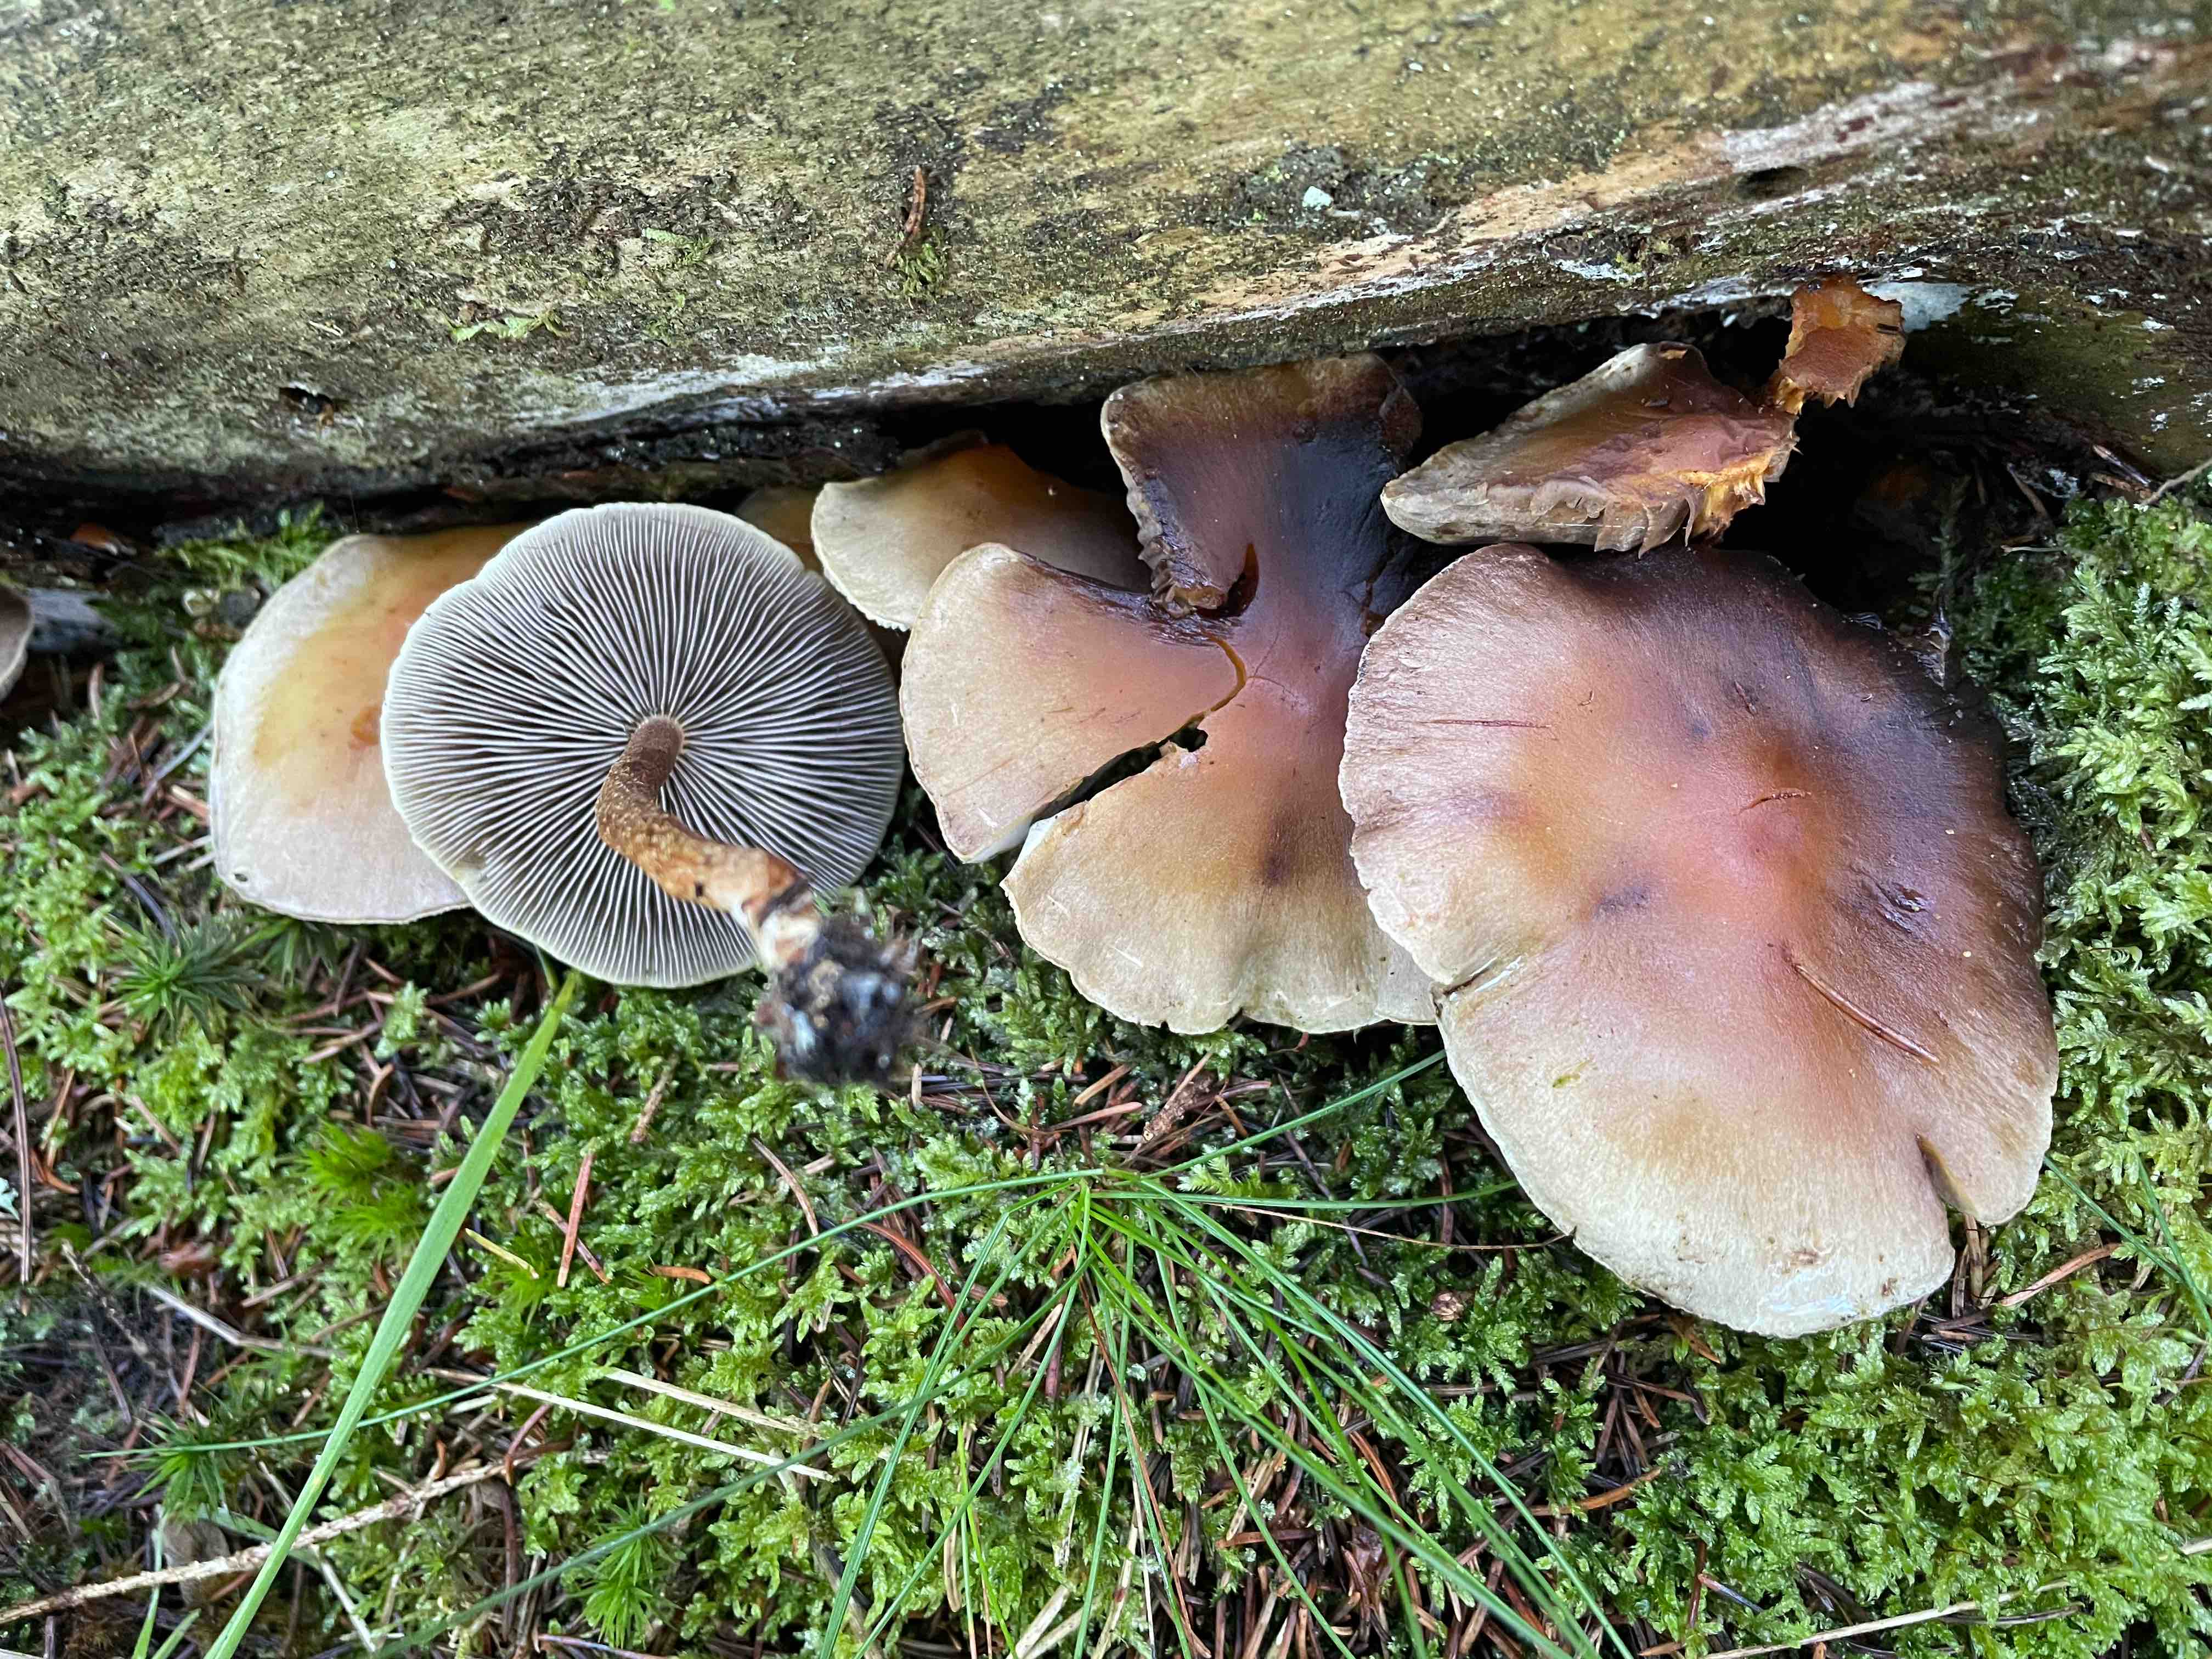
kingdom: Fungi
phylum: Basidiomycota
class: Agaricomycetes
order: Agaricales
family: Strophariaceae
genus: Hypholoma
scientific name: Hypholoma capnoides
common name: gran-svovlhat
